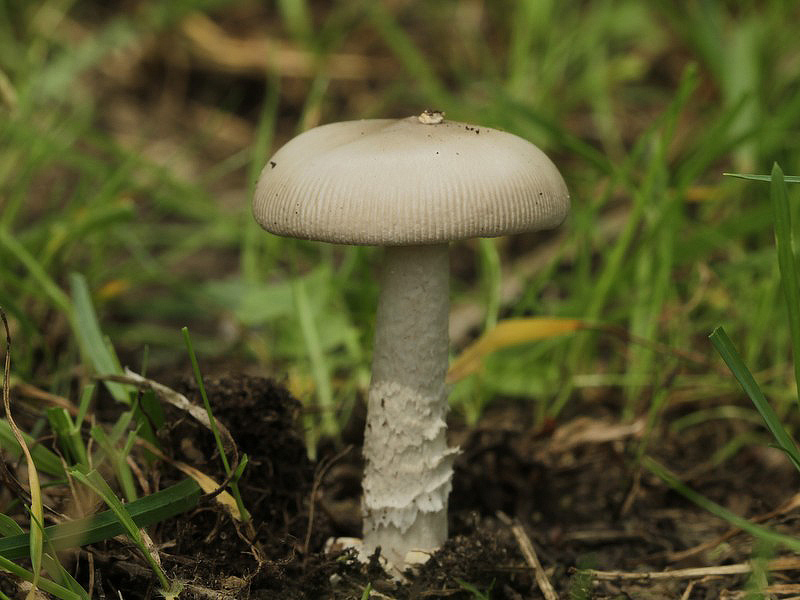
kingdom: Fungi
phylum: Basidiomycota
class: Agaricomycetes
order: Agaricales
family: Amanitaceae
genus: Amanita
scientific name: Amanita vaginata
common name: grå kam-fluesvamp
